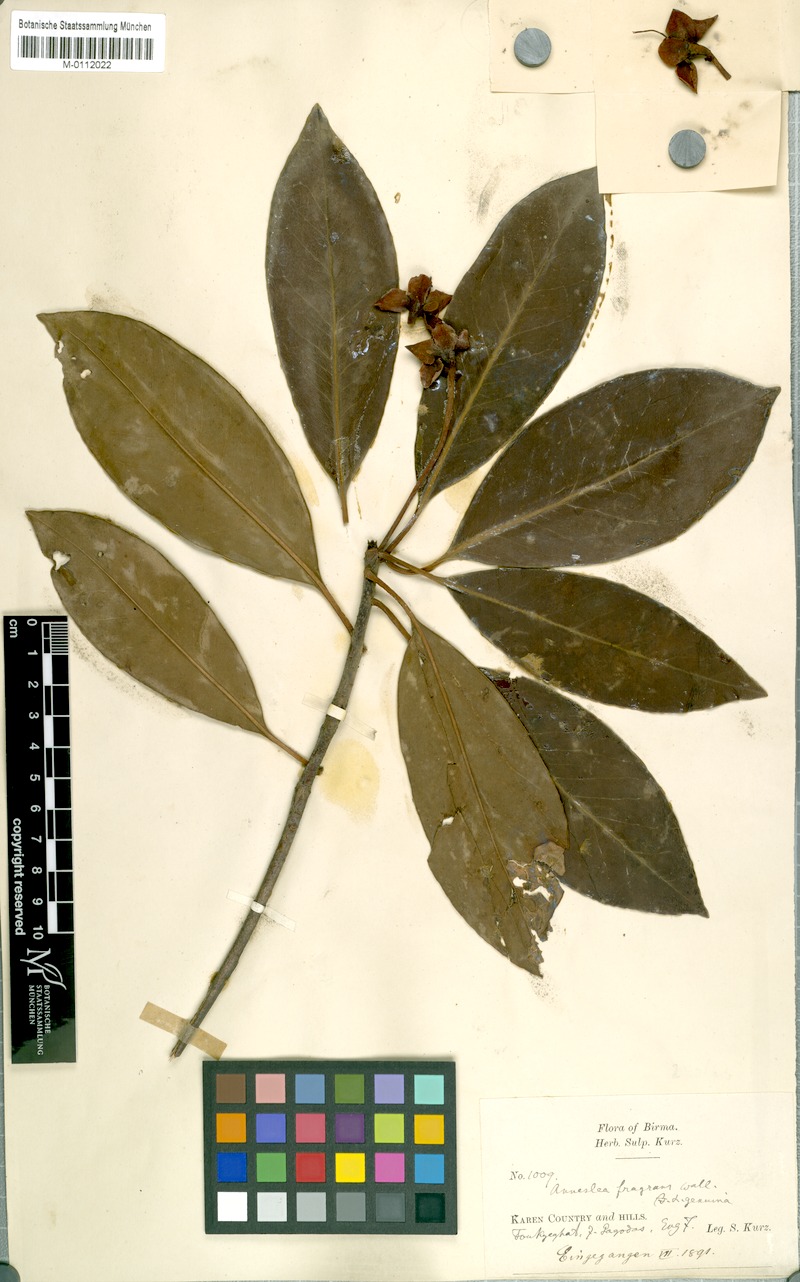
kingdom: Plantae
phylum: Tracheophyta
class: Magnoliopsida
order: Ericales
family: Pentaphylacaceae
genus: Anneslea
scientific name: Anneslea fragrans
